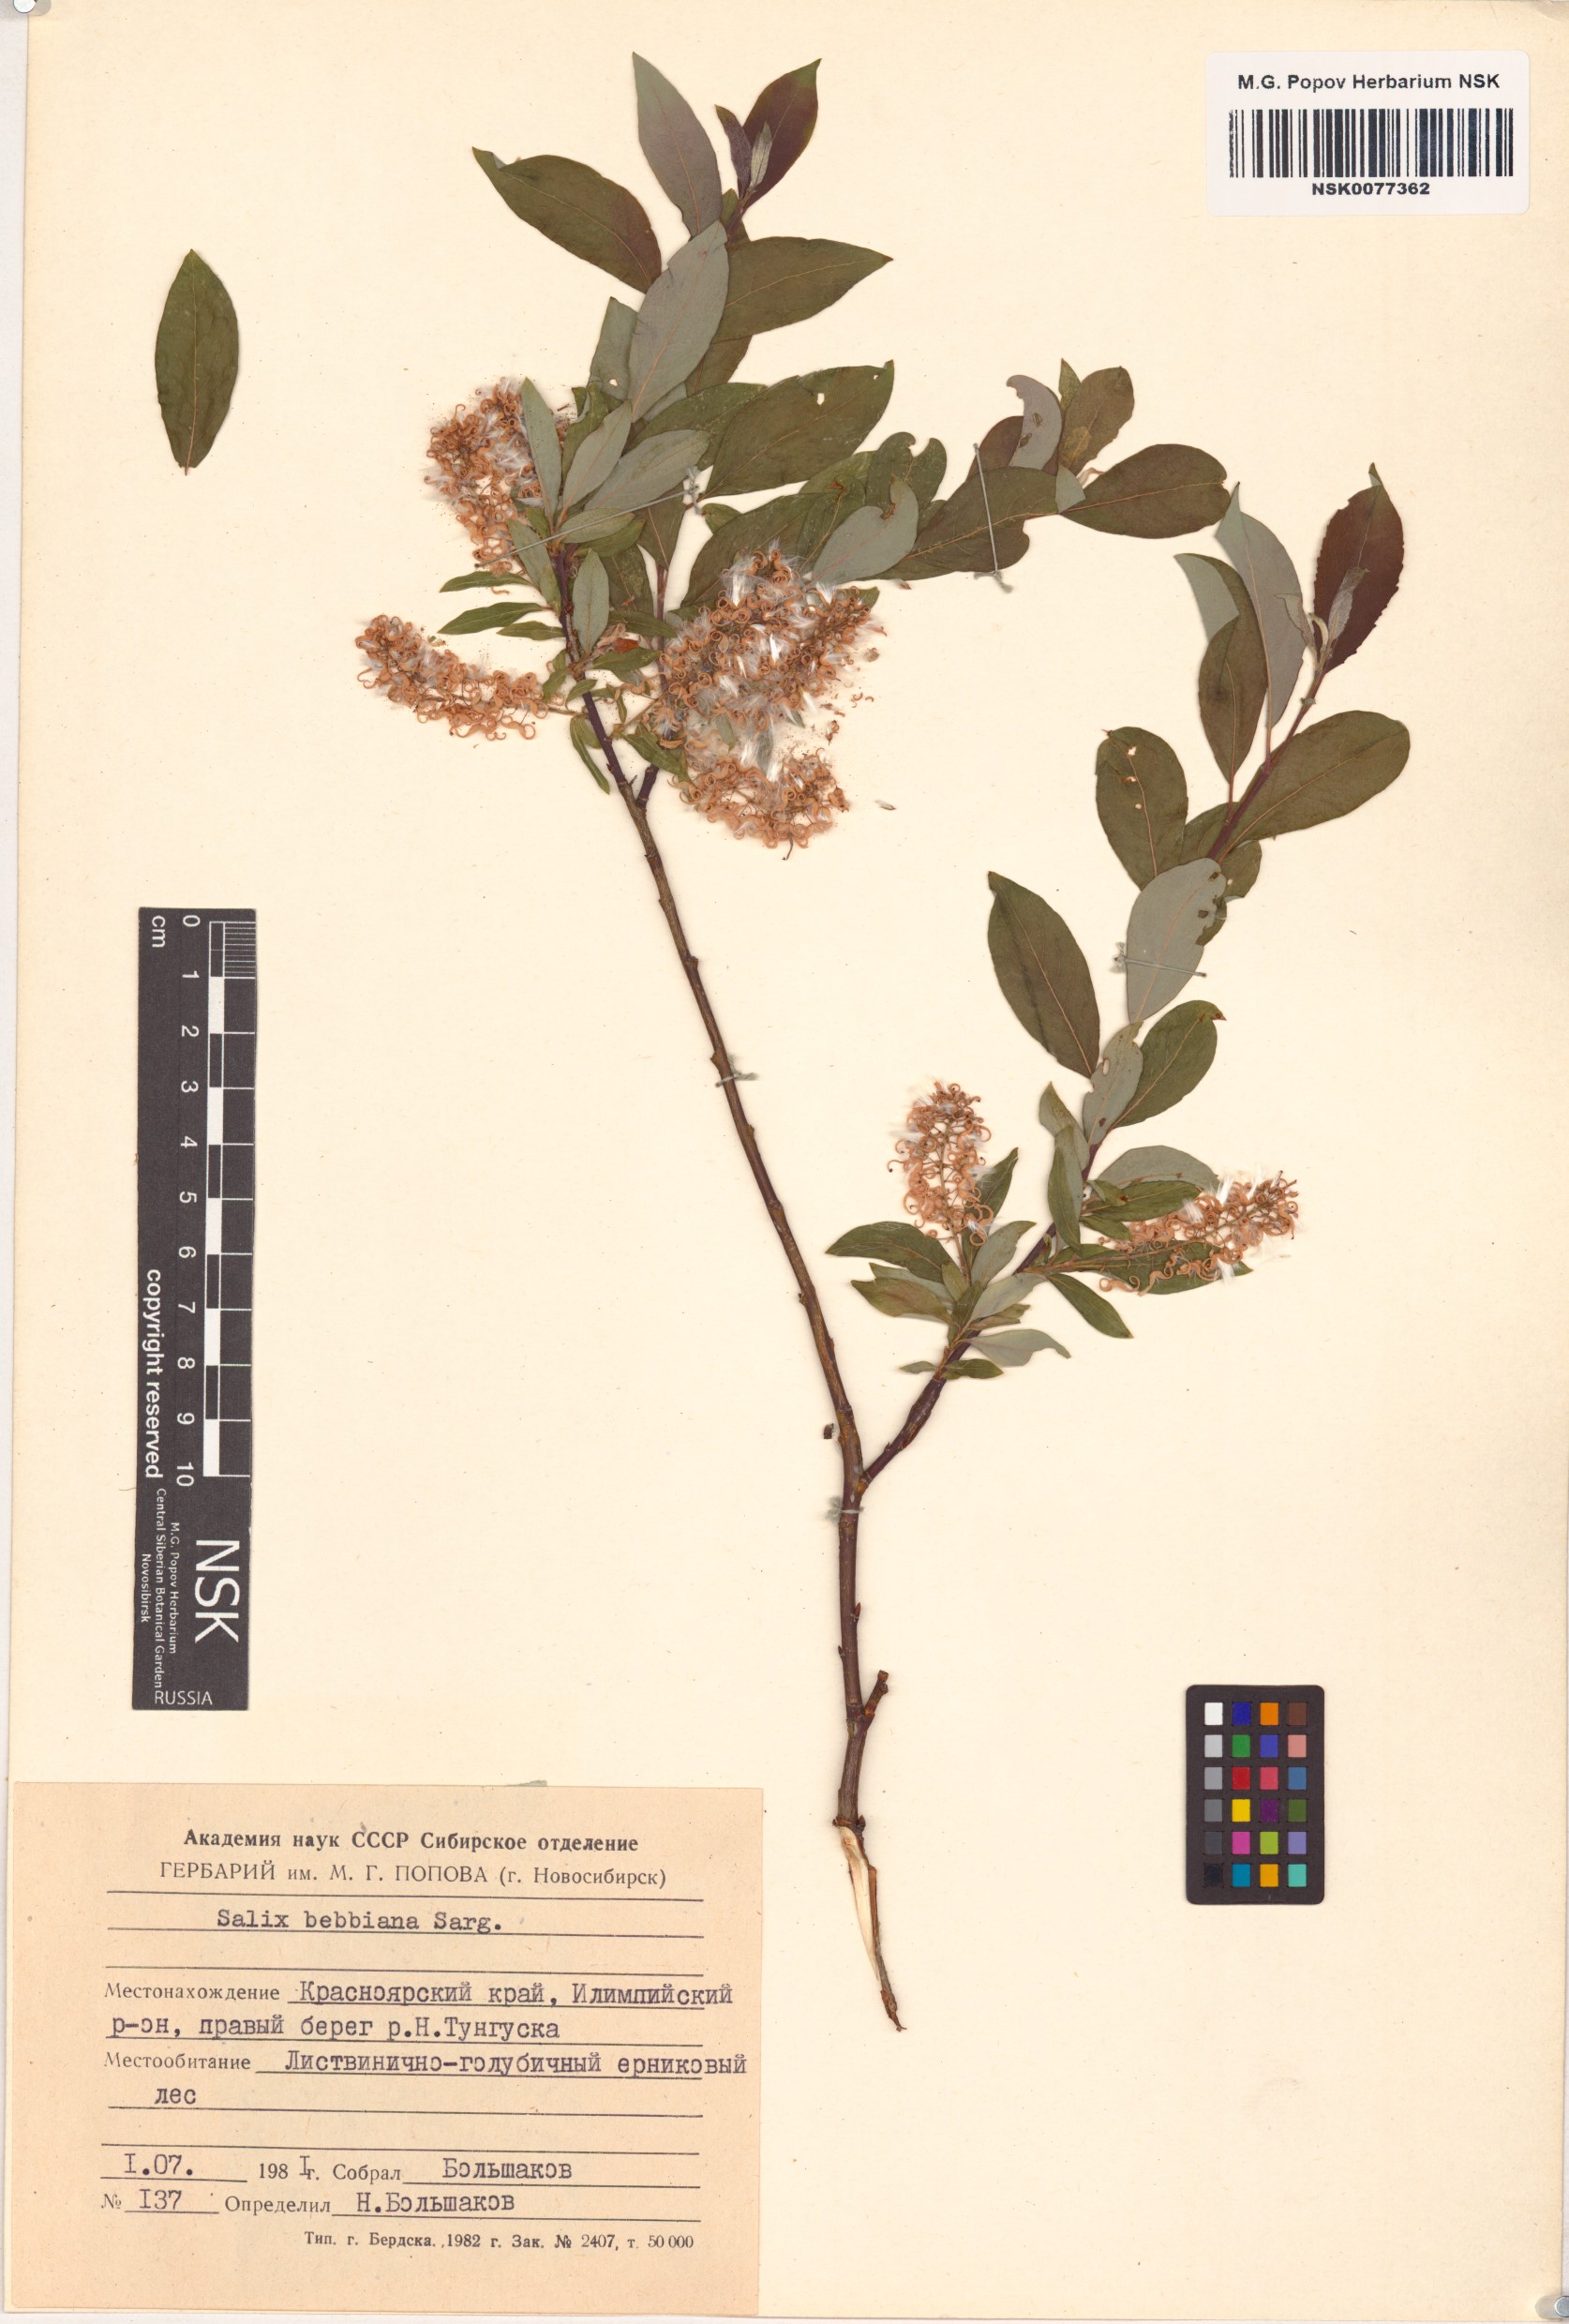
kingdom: Plantae
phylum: Tracheophyta
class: Magnoliopsida
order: Malpighiales
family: Salicaceae
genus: Salix
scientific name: Salix bebbiana
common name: Bebb's willow
